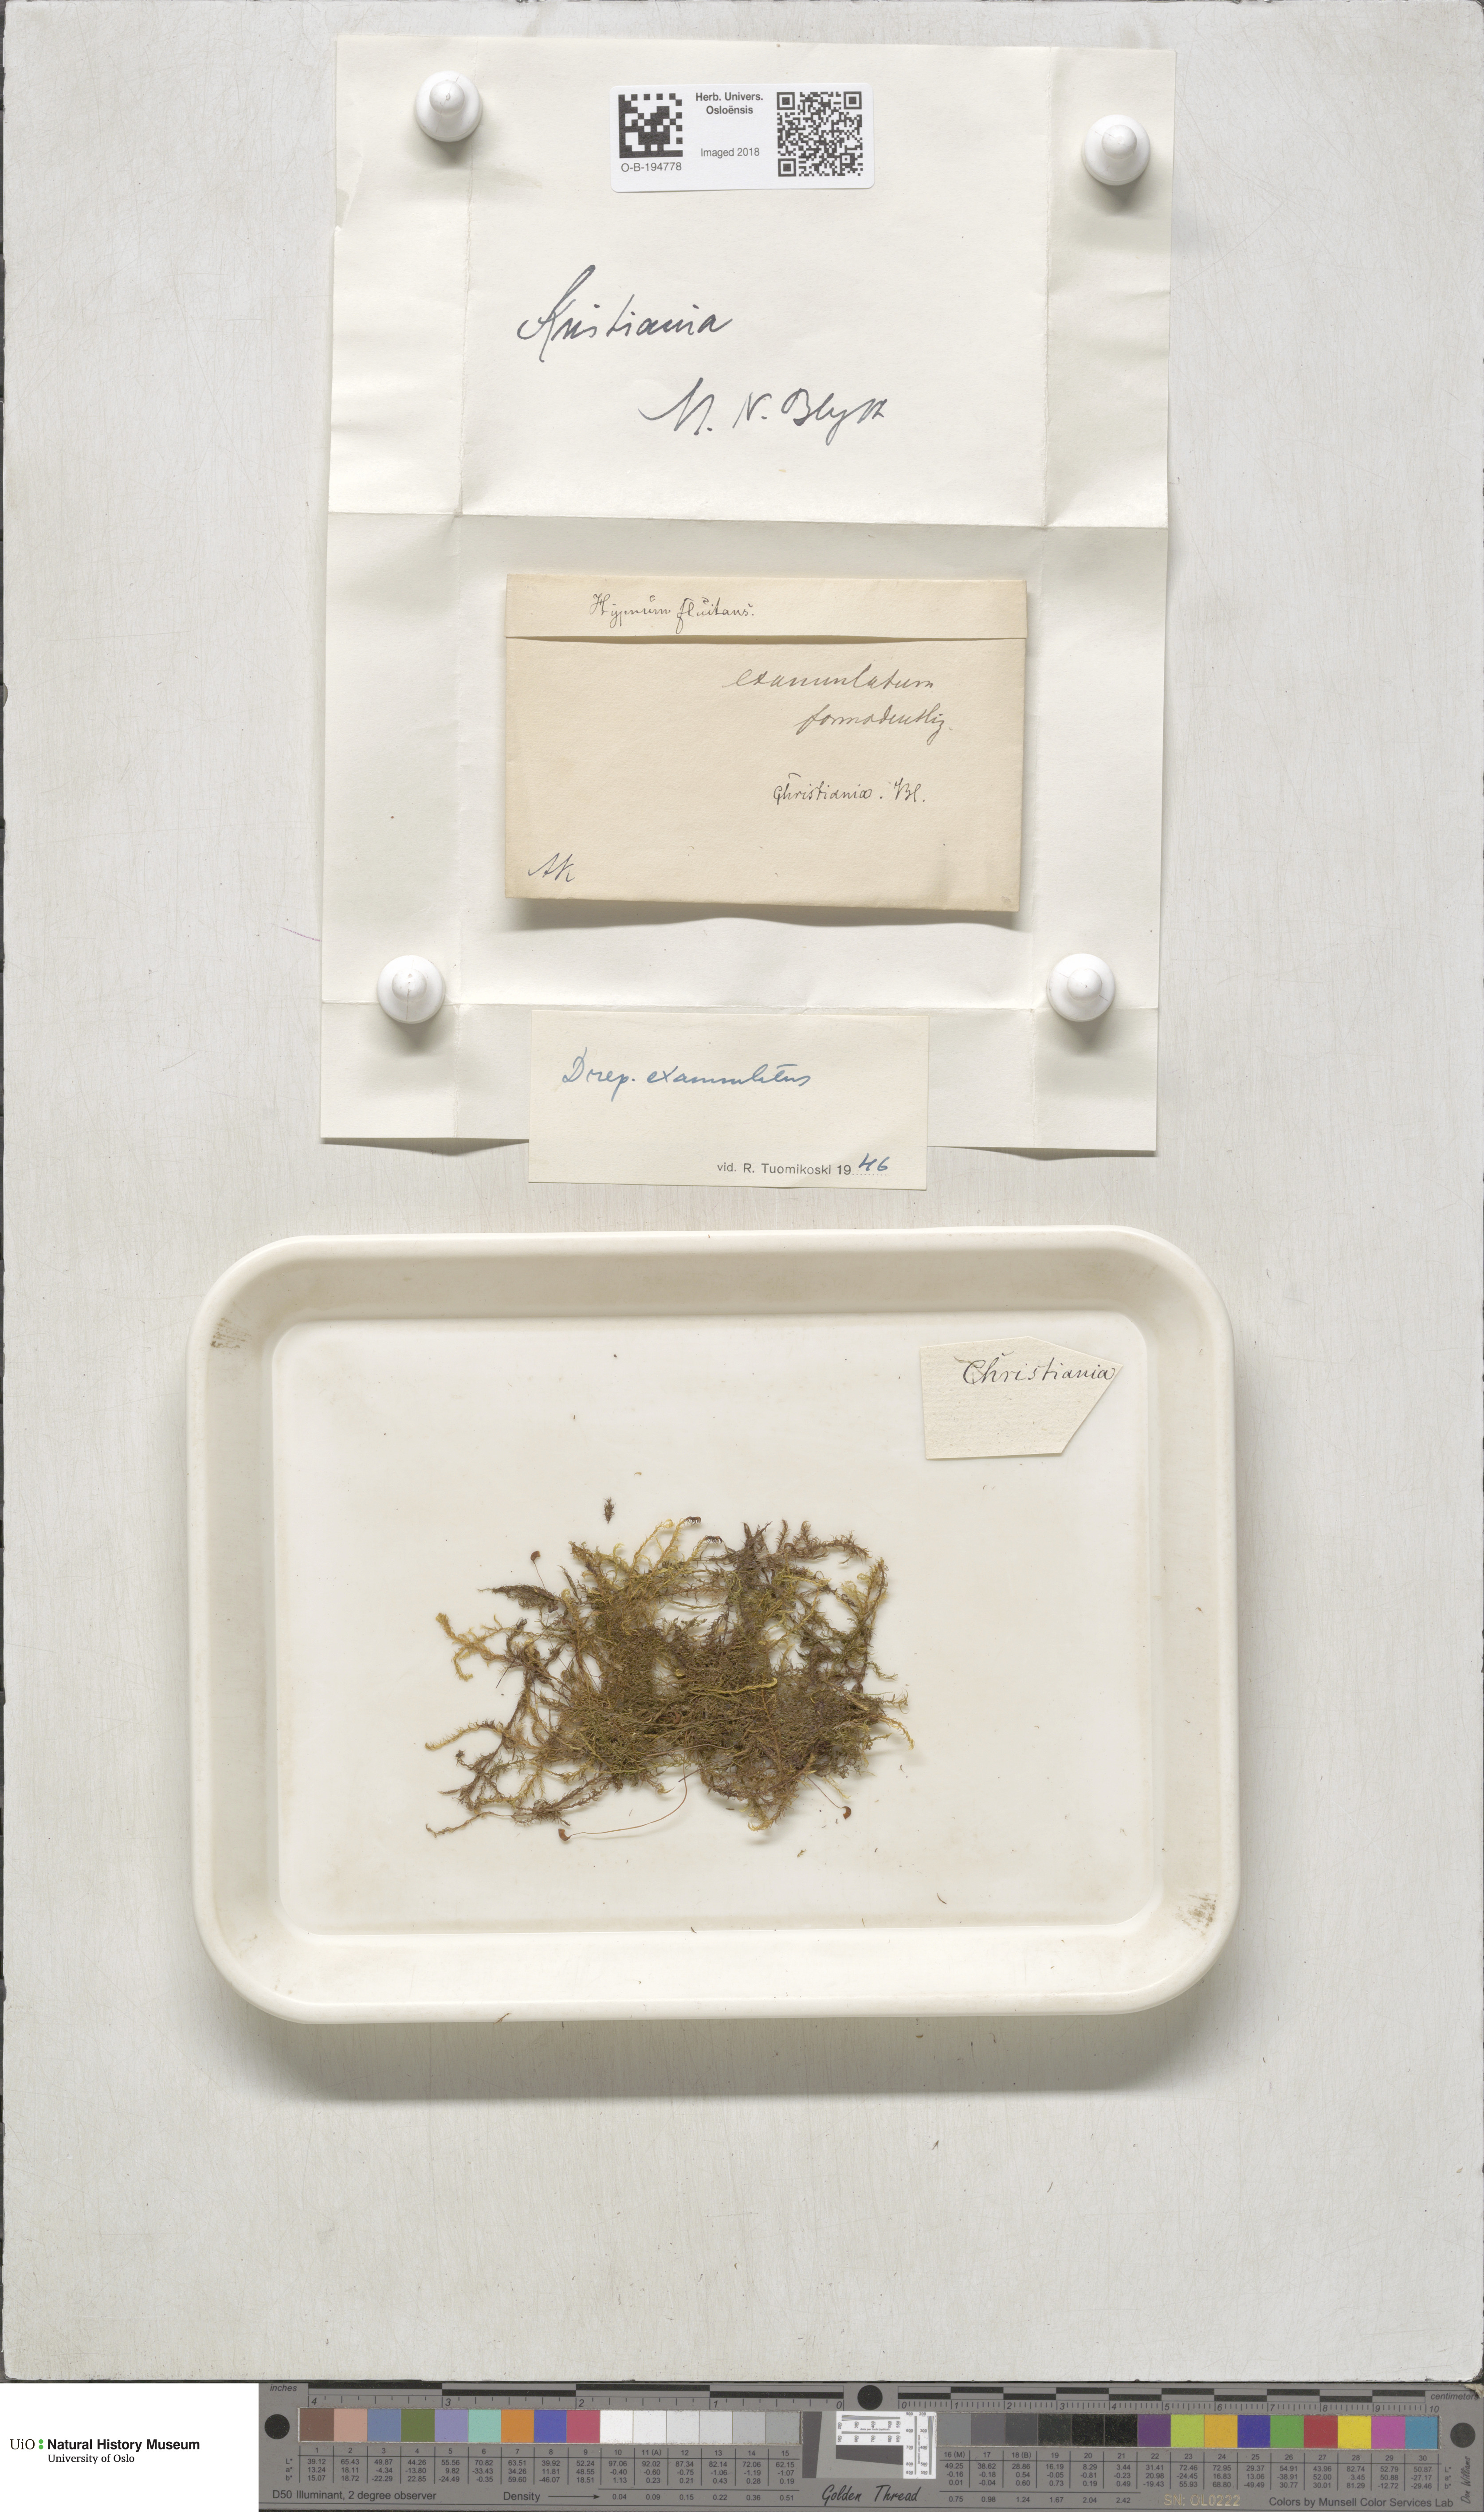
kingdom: Plantae
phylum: Bryophyta
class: Bryopsida
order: Hypnales
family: Calliergonaceae
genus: Sarmentypnum
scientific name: Sarmentypnum exannulatum
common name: Ringless spoon moss
